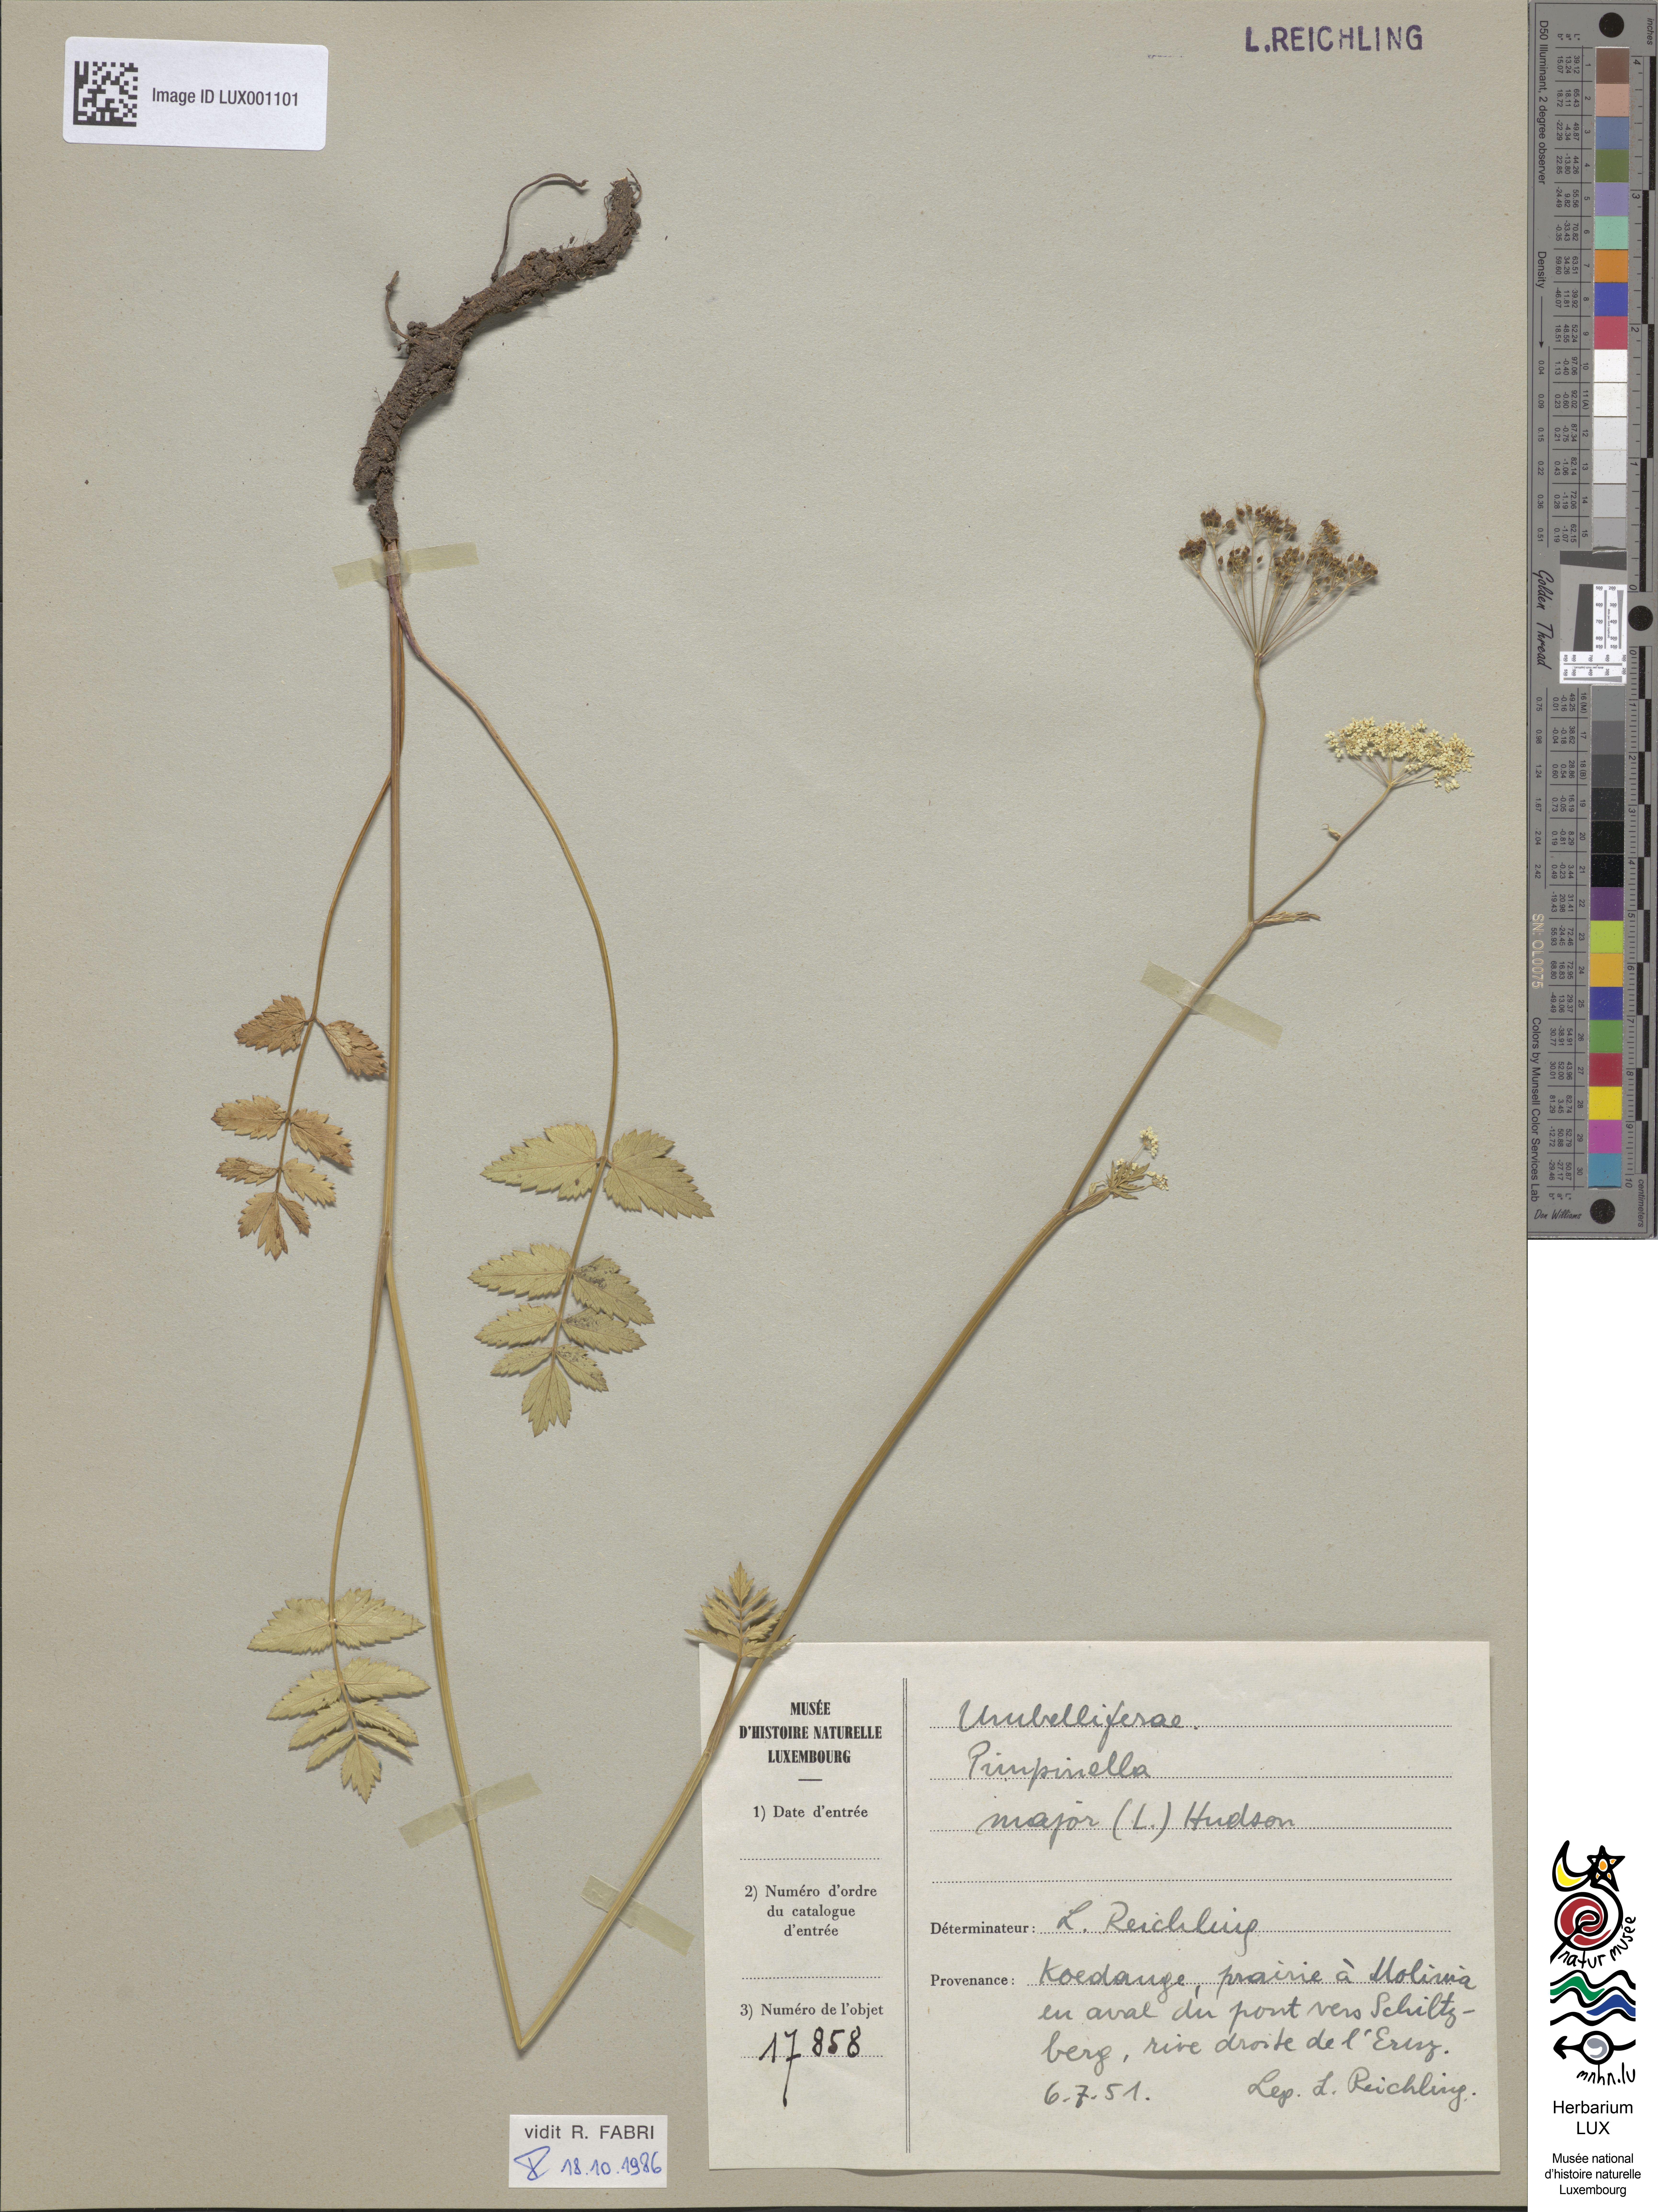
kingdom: Plantae
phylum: Tracheophyta
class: Magnoliopsida
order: Apiales
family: Apiaceae
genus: Pimpinella
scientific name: Pimpinella major
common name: Greater burnet-saxifrage
